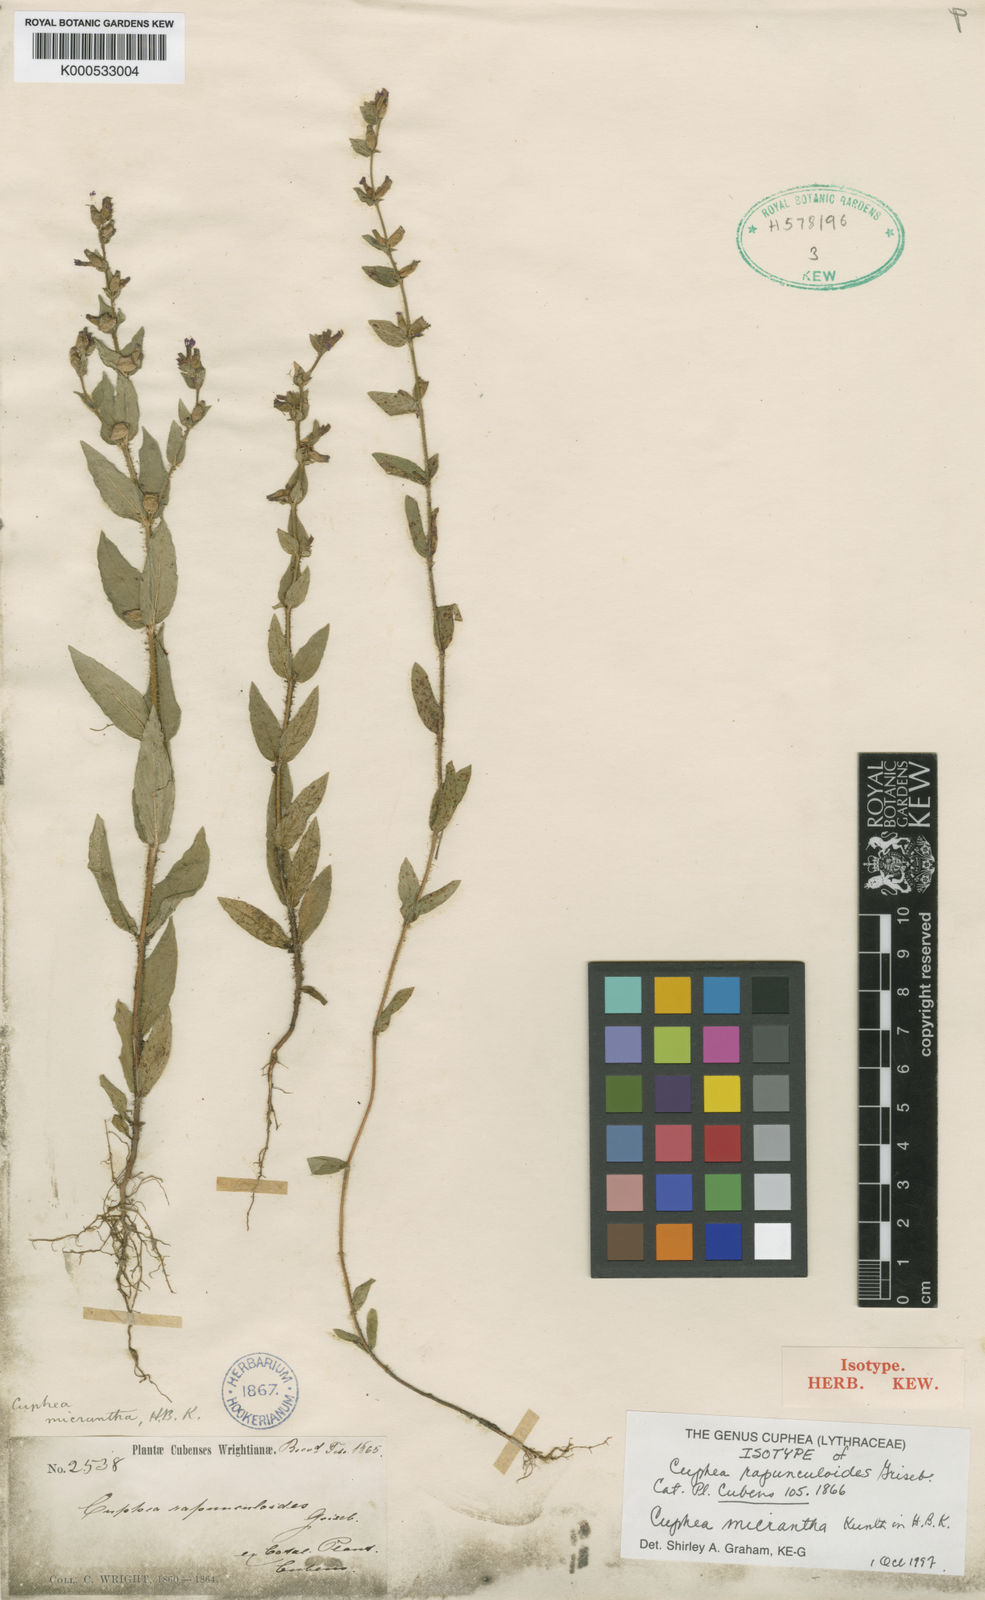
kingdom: Plantae
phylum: Tracheophyta
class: Magnoliopsida
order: Myrtales
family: Lythraceae
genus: Cuphea
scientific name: Cuphea micrantha
